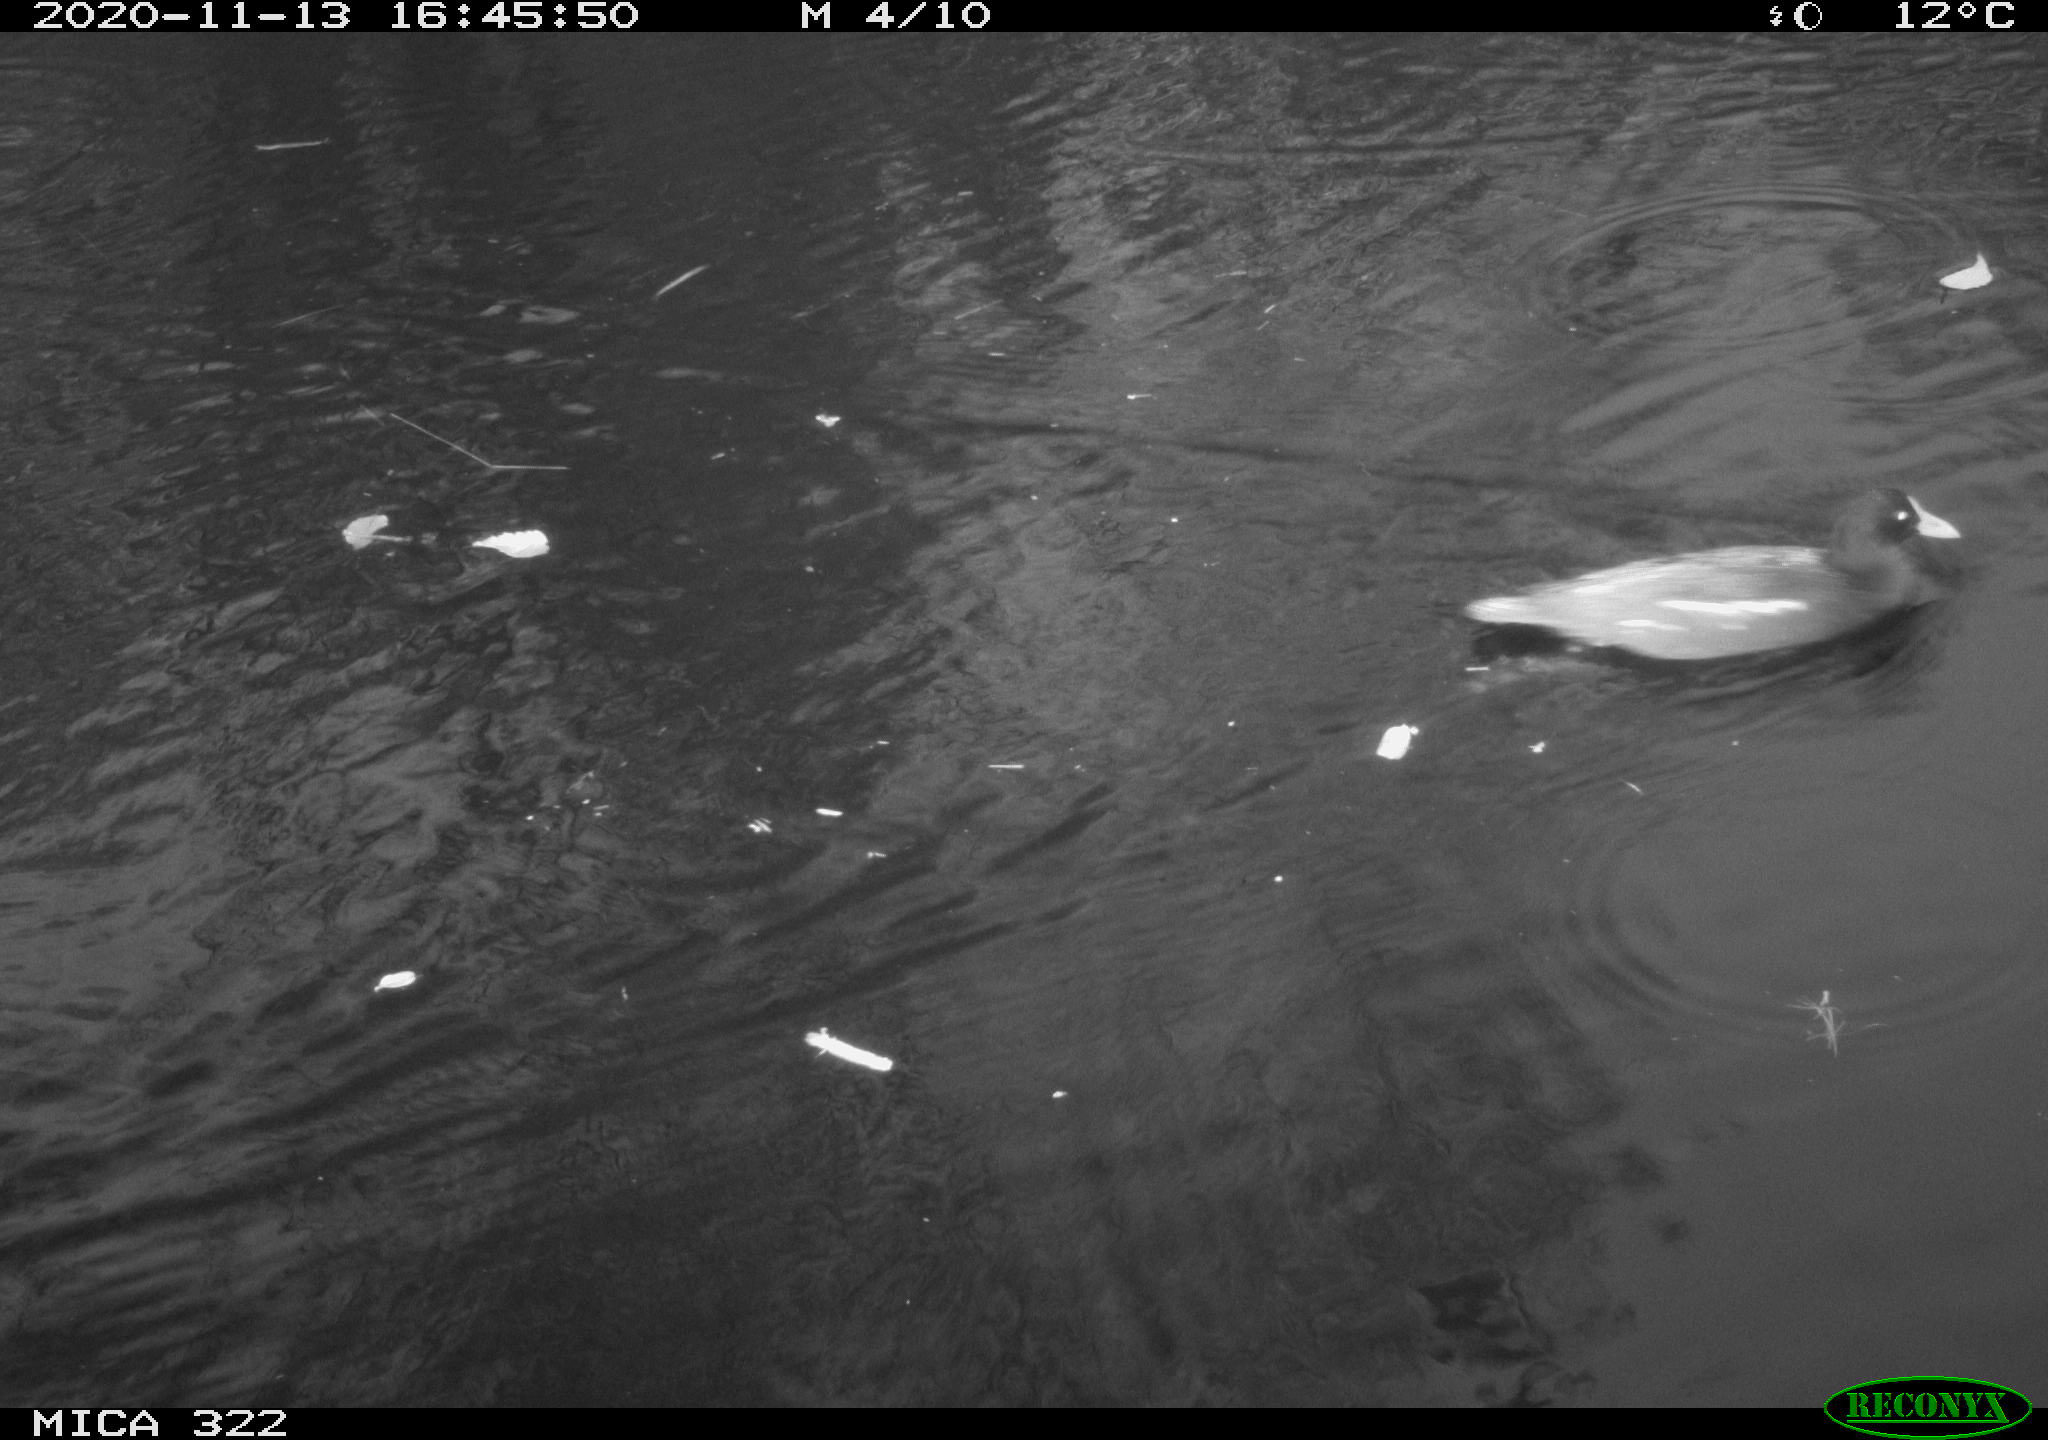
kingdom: Animalia
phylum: Chordata
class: Aves
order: Gruiformes
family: Rallidae
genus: Gallinula
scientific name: Gallinula chloropus
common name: Common moorhen
